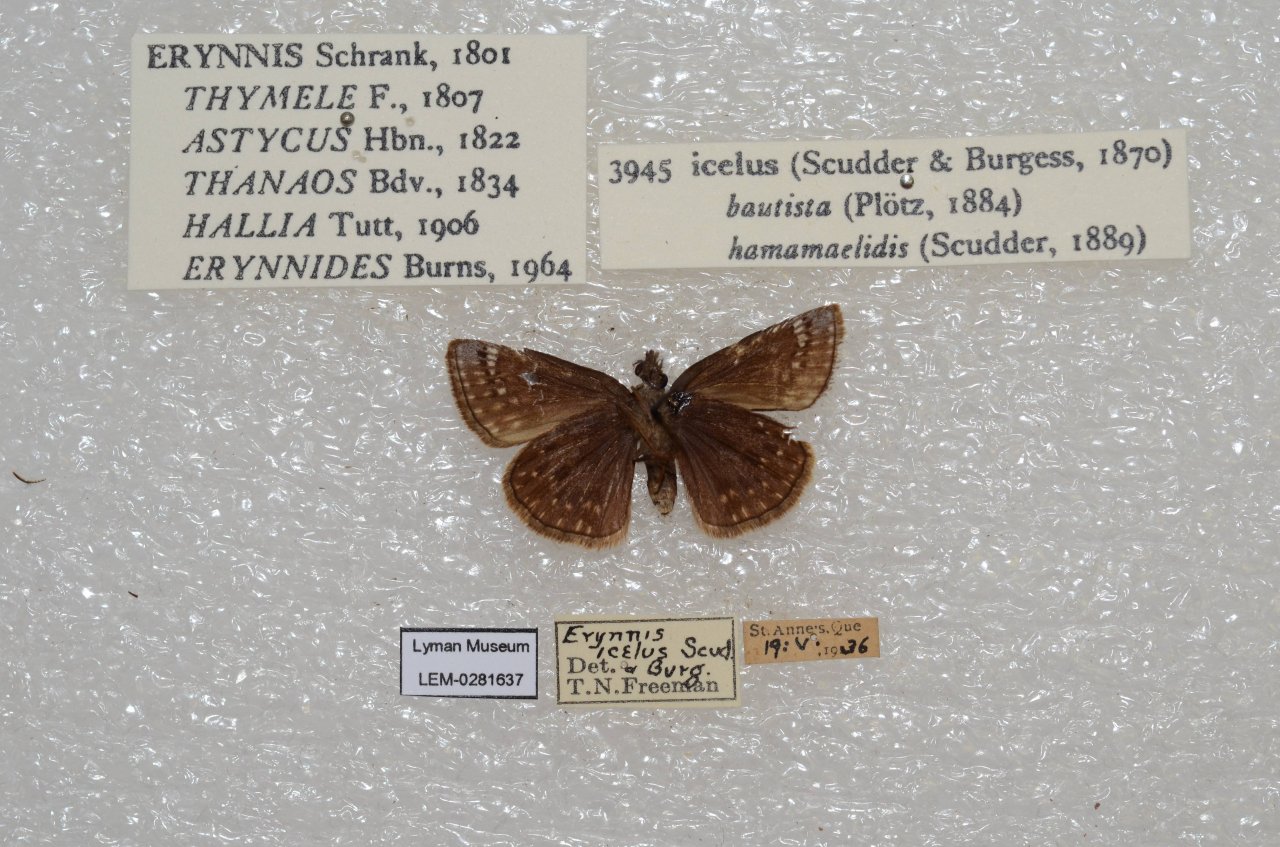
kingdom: Animalia
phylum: Arthropoda
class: Insecta
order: Lepidoptera
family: Hesperiidae
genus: Erynnis
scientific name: Erynnis icelus
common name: Dreamy Duskywing
